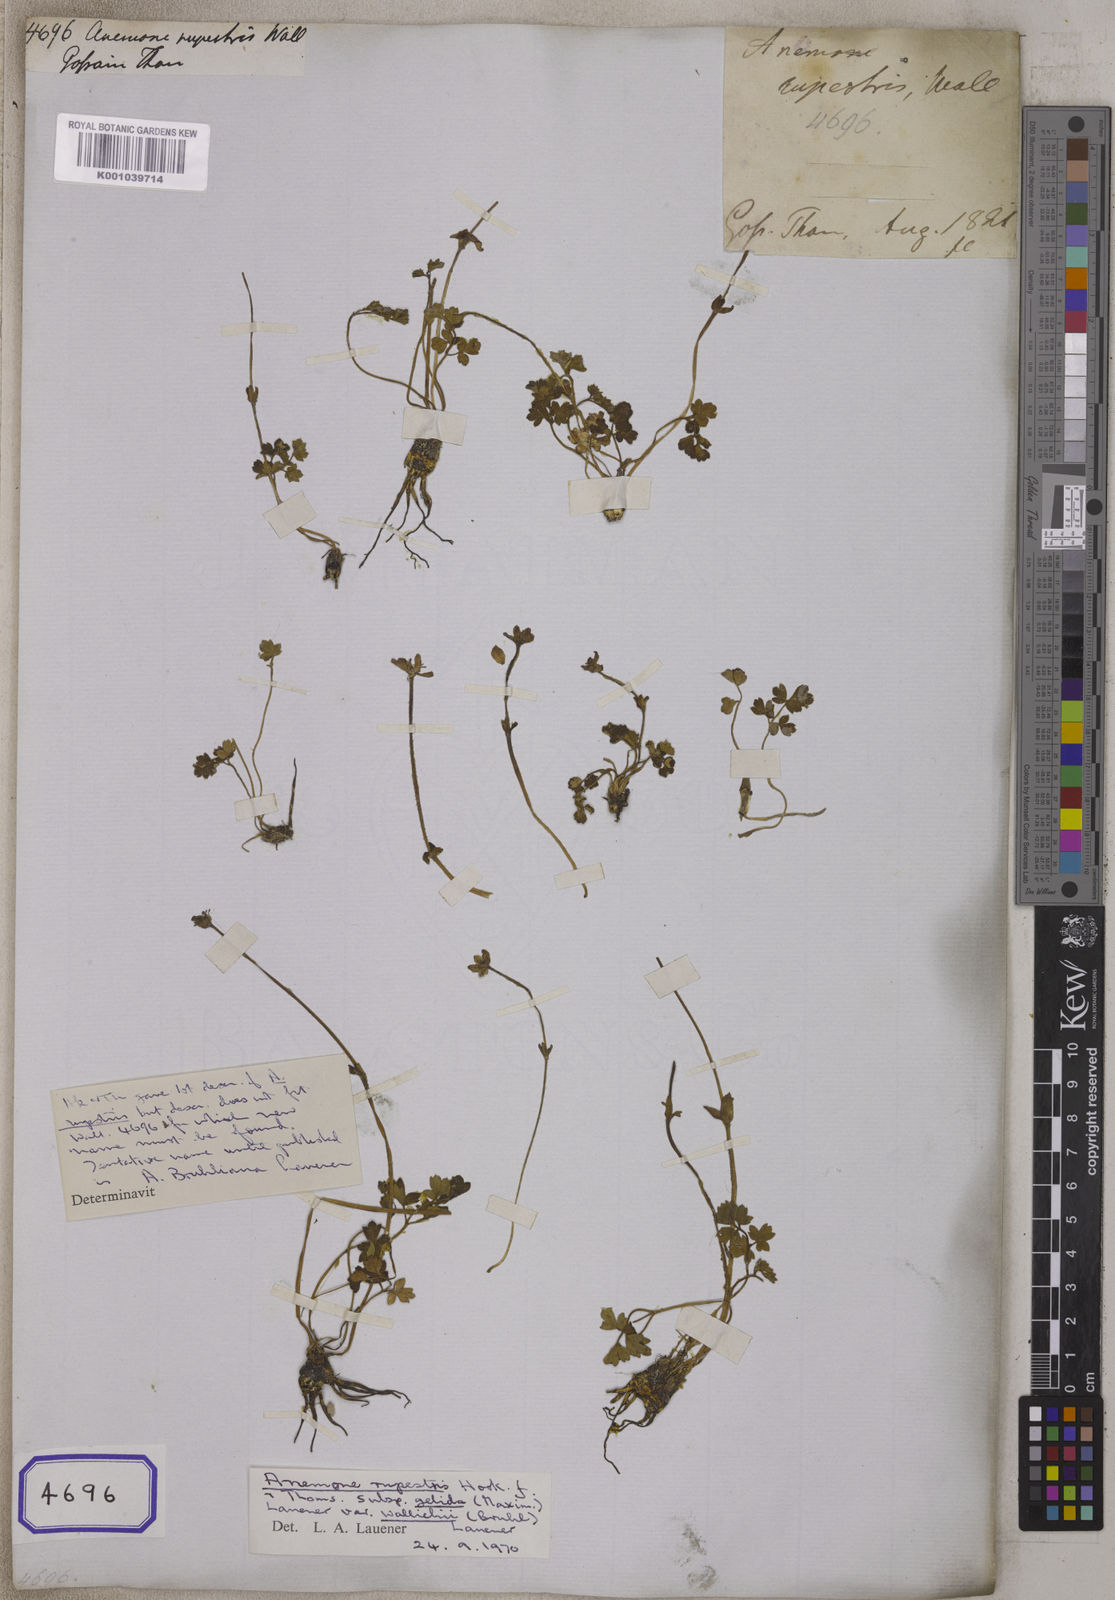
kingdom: Plantae
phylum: Tracheophyta
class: Magnoliopsida
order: Ranunculales
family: Ranunculaceae
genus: Anemone
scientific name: Anemone
